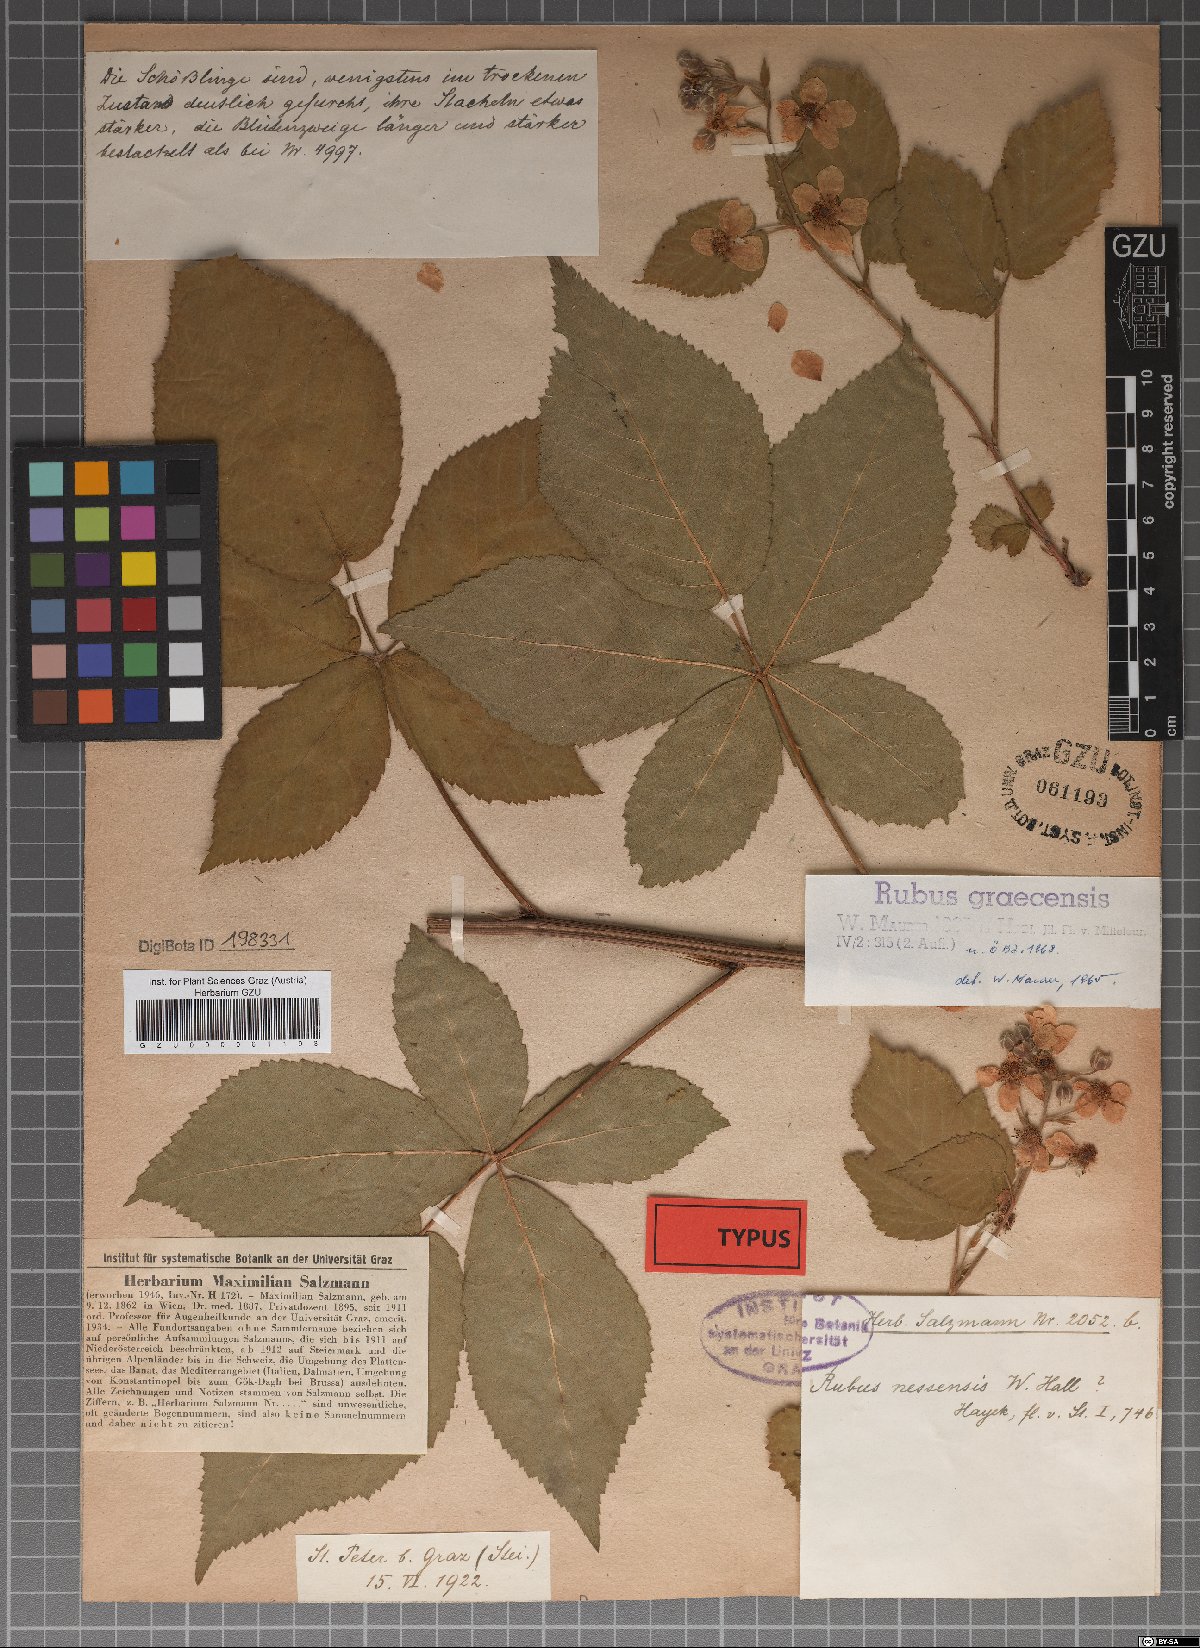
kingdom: Plantae
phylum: Tracheophyta
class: Magnoliopsida
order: Rosales
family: Rosaceae
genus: Rubus
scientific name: Rubus graecensis
